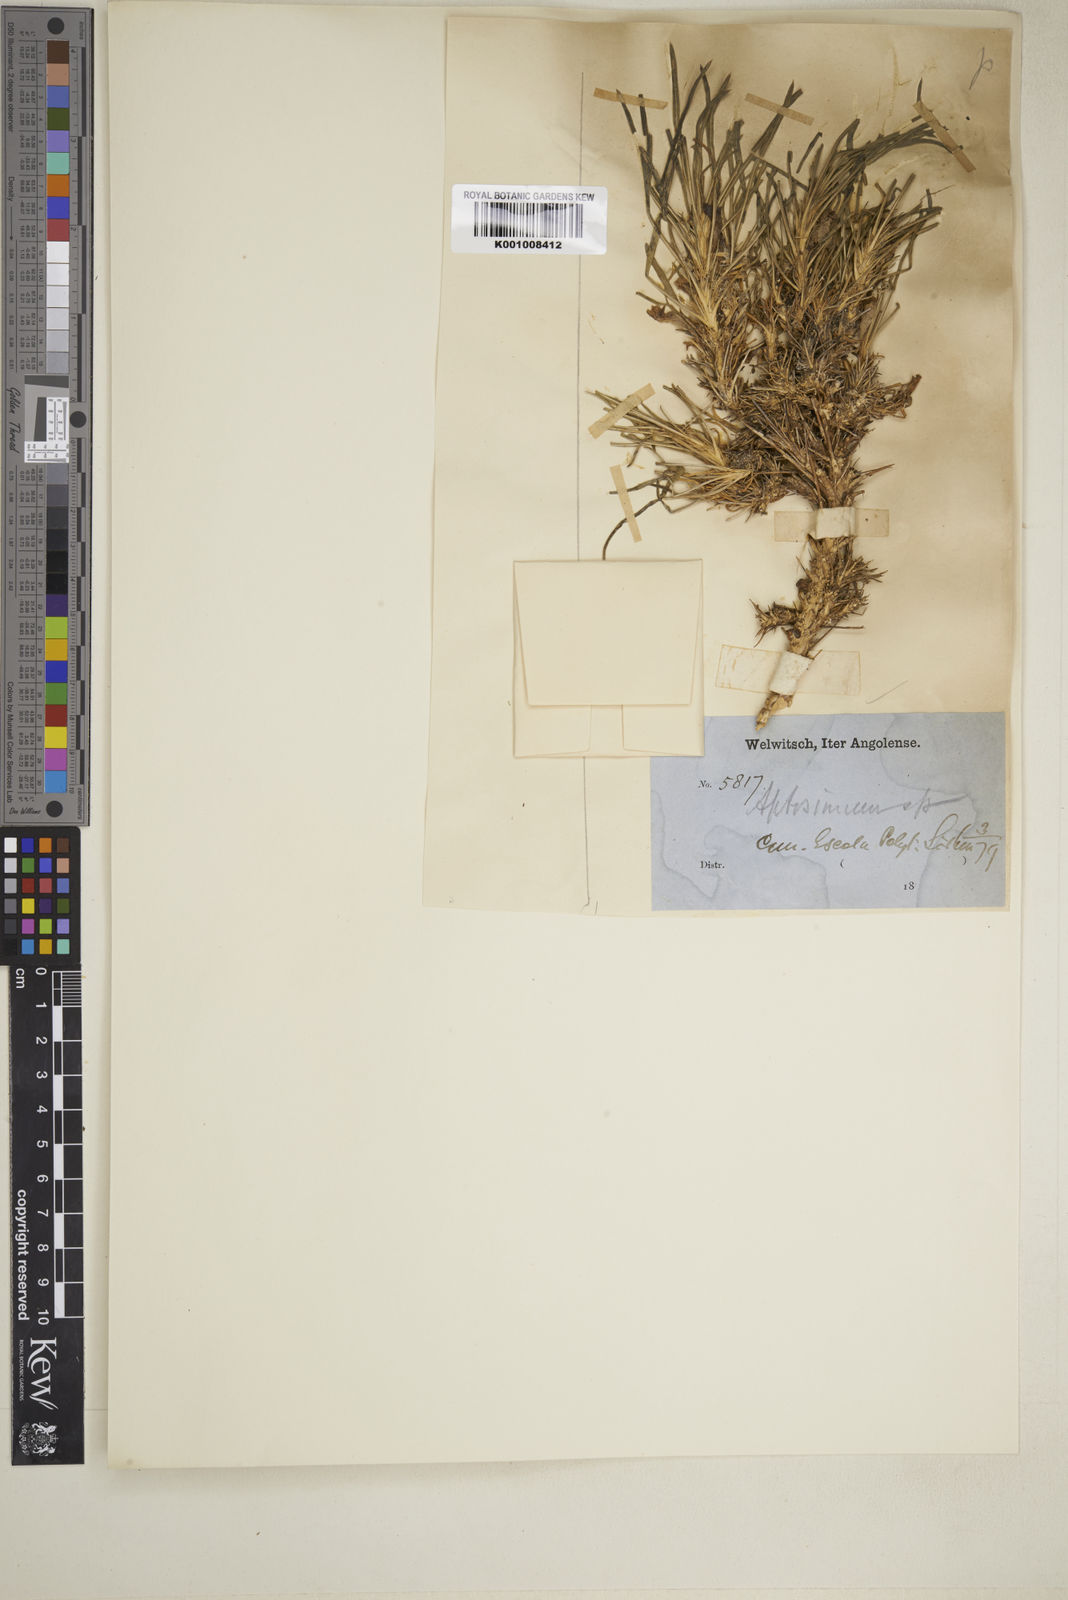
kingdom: Plantae
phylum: Tracheophyta
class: Magnoliopsida
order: Lamiales
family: Scrophulariaceae
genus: Aptosimum
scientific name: Aptosimum lineare
